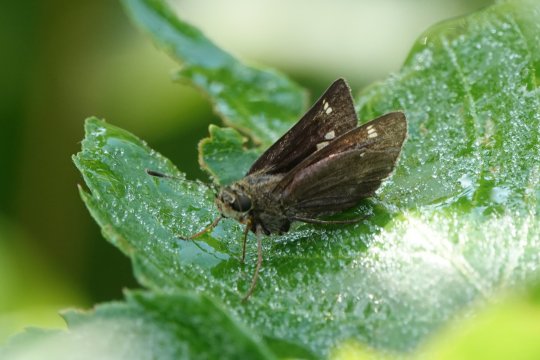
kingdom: Animalia
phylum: Arthropoda
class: Insecta
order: Lepidoptera
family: Hesperiidae
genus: Vernia
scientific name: Vernia verna
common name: Little Glassywing
